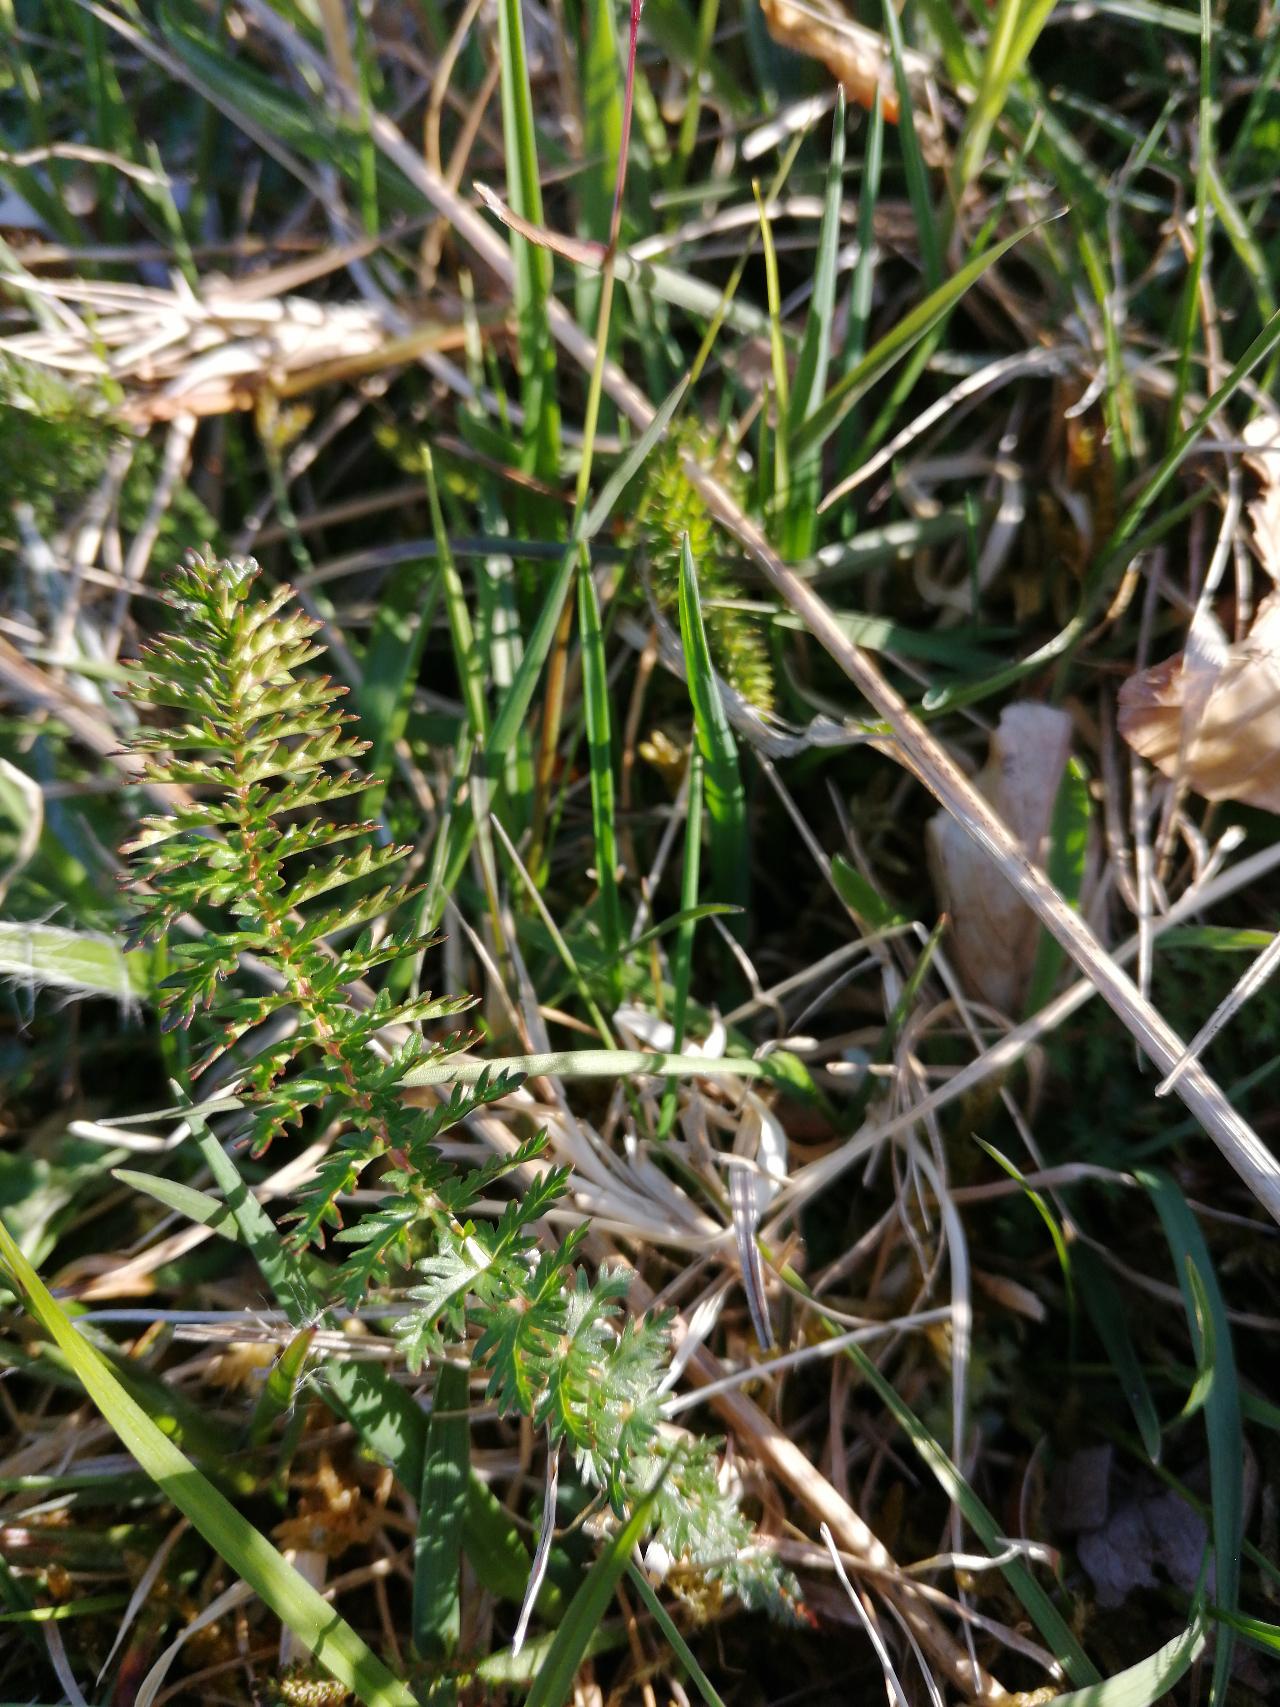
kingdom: Plantae
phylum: Tracheophyta
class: Magnoliopsida
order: Rosales
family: Rosaceae
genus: Filipendula
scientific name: Filipendula vulgaris
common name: Knoldet mjødurt
